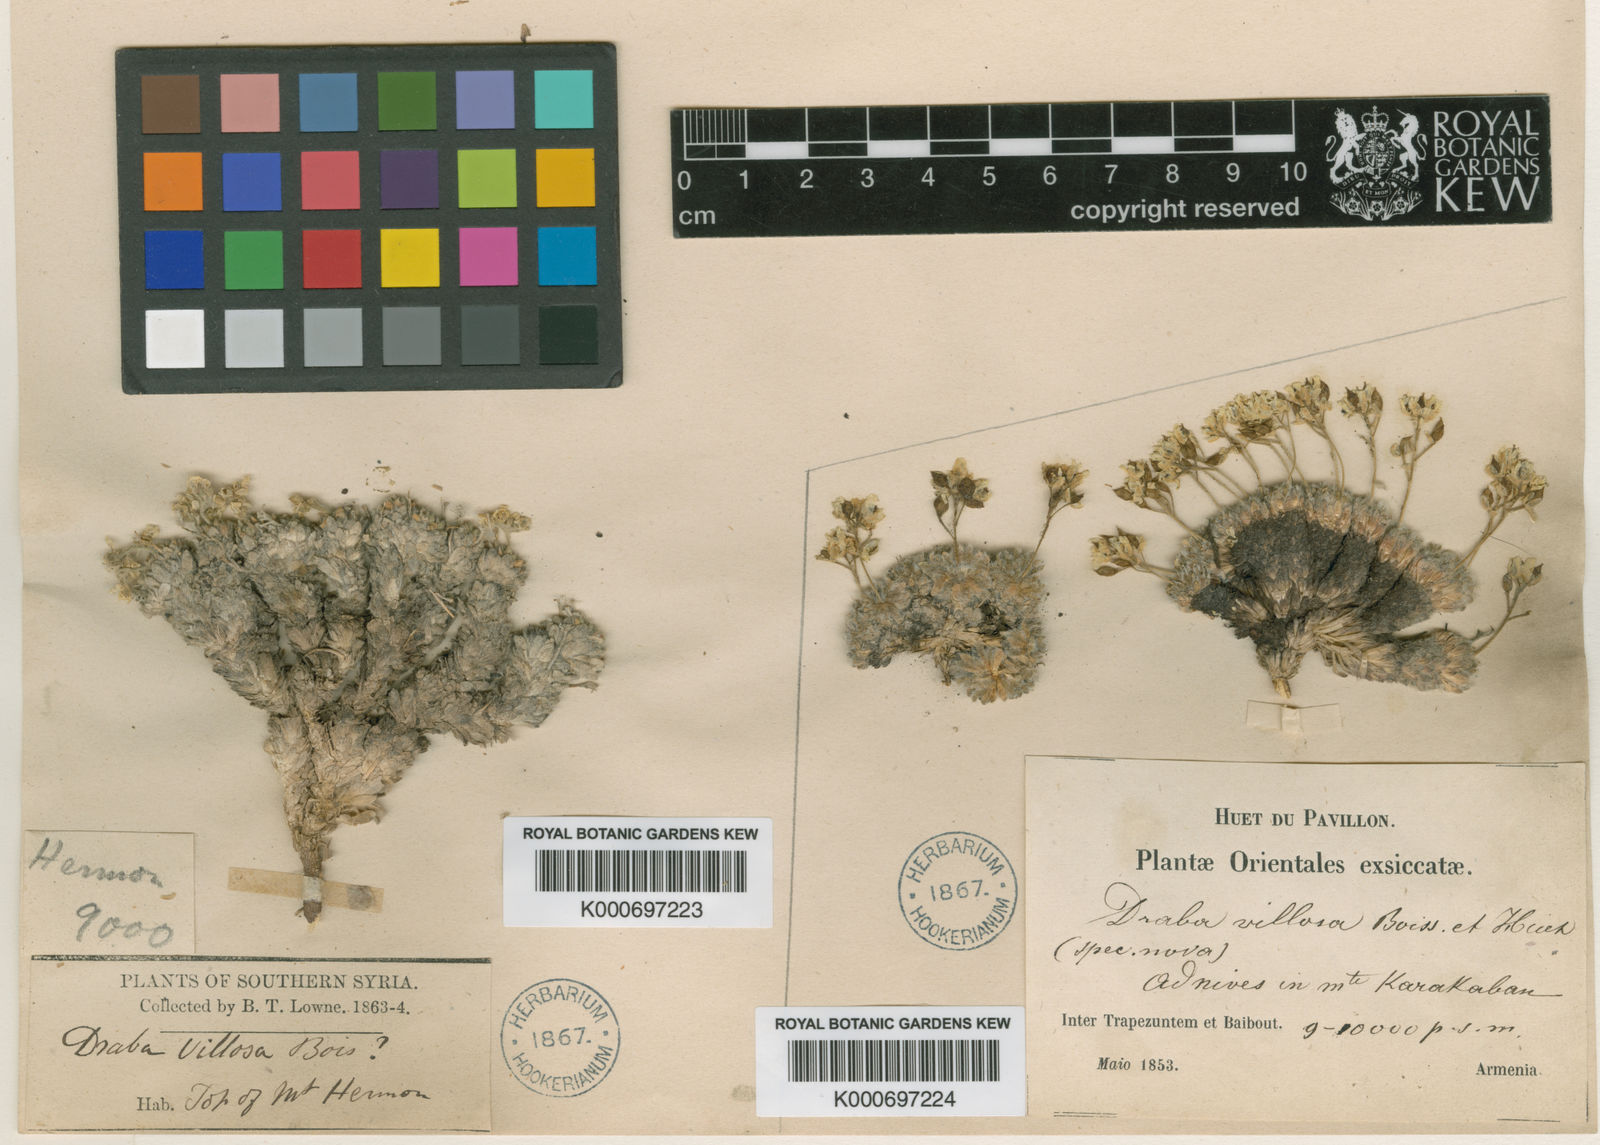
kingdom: Plantae
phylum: Tracheophyta
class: Magnoliopsida
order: Brassicales
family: Brassicaceae
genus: Draba
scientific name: Draba polytricha
